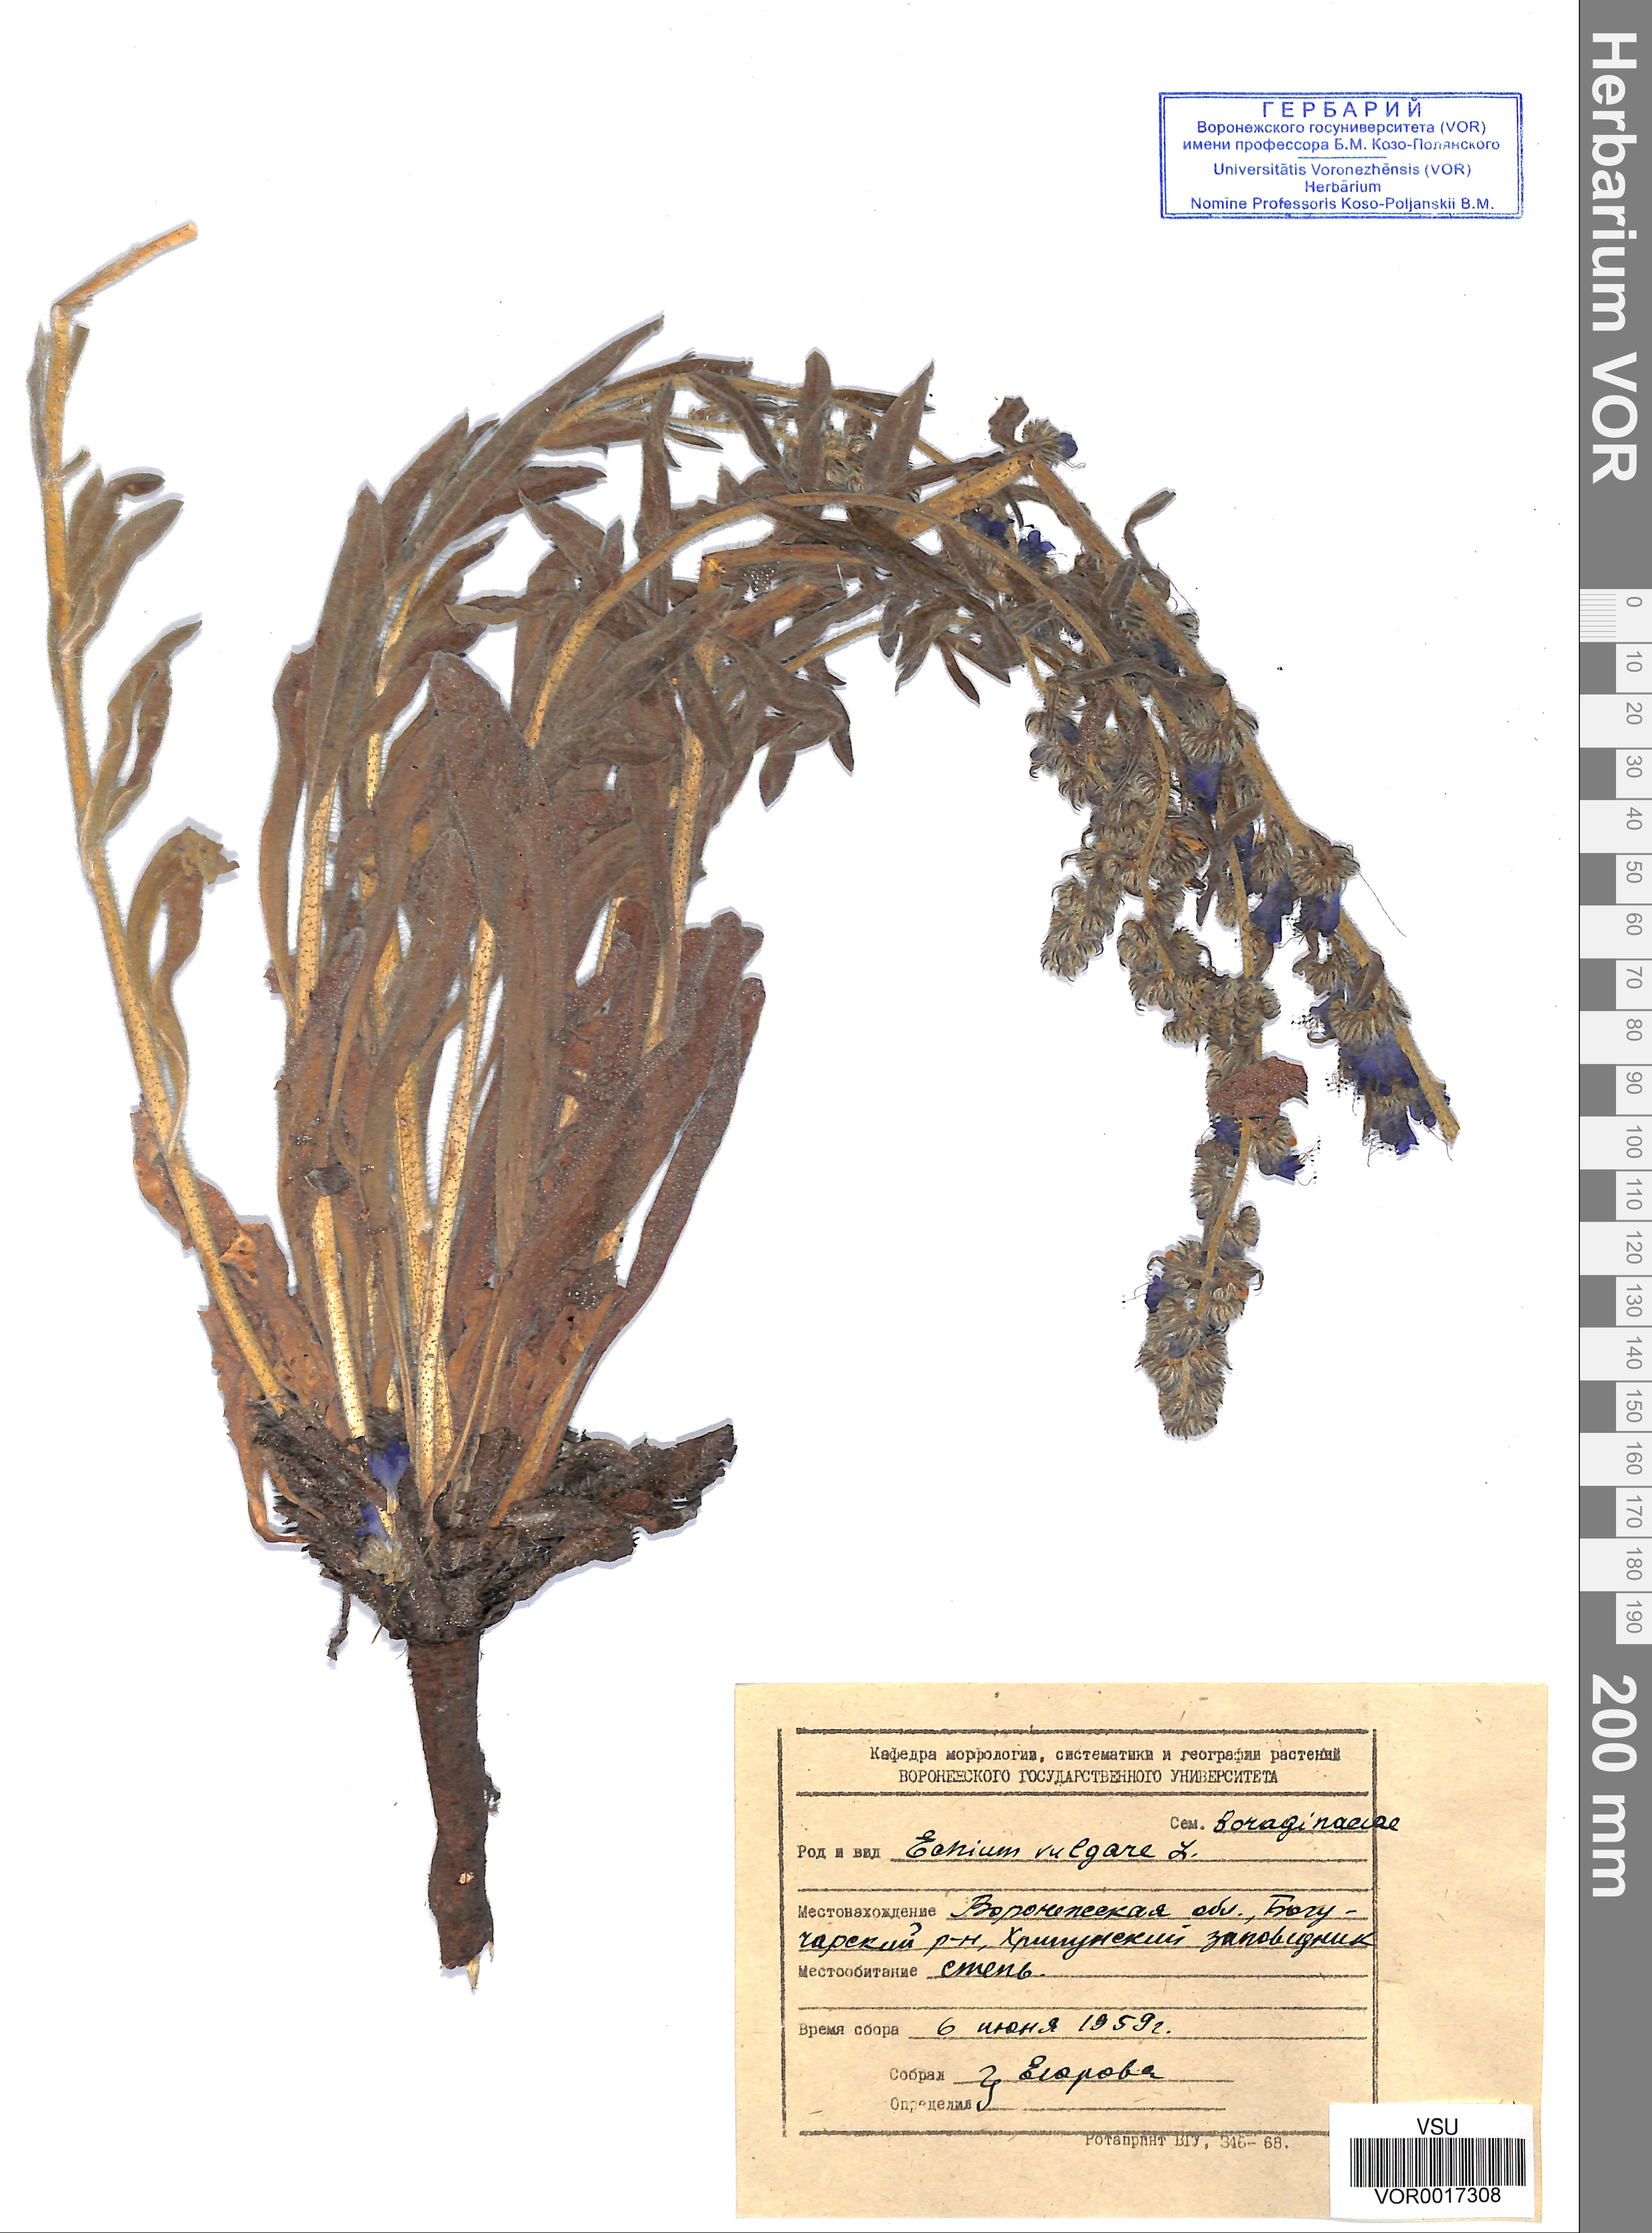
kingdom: Plantae
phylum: Tracheophyta
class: Magnoliopsida
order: Boraginales
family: Boraginaceae
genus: Echium
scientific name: Echium vulgare
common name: Common viper's bugloss
